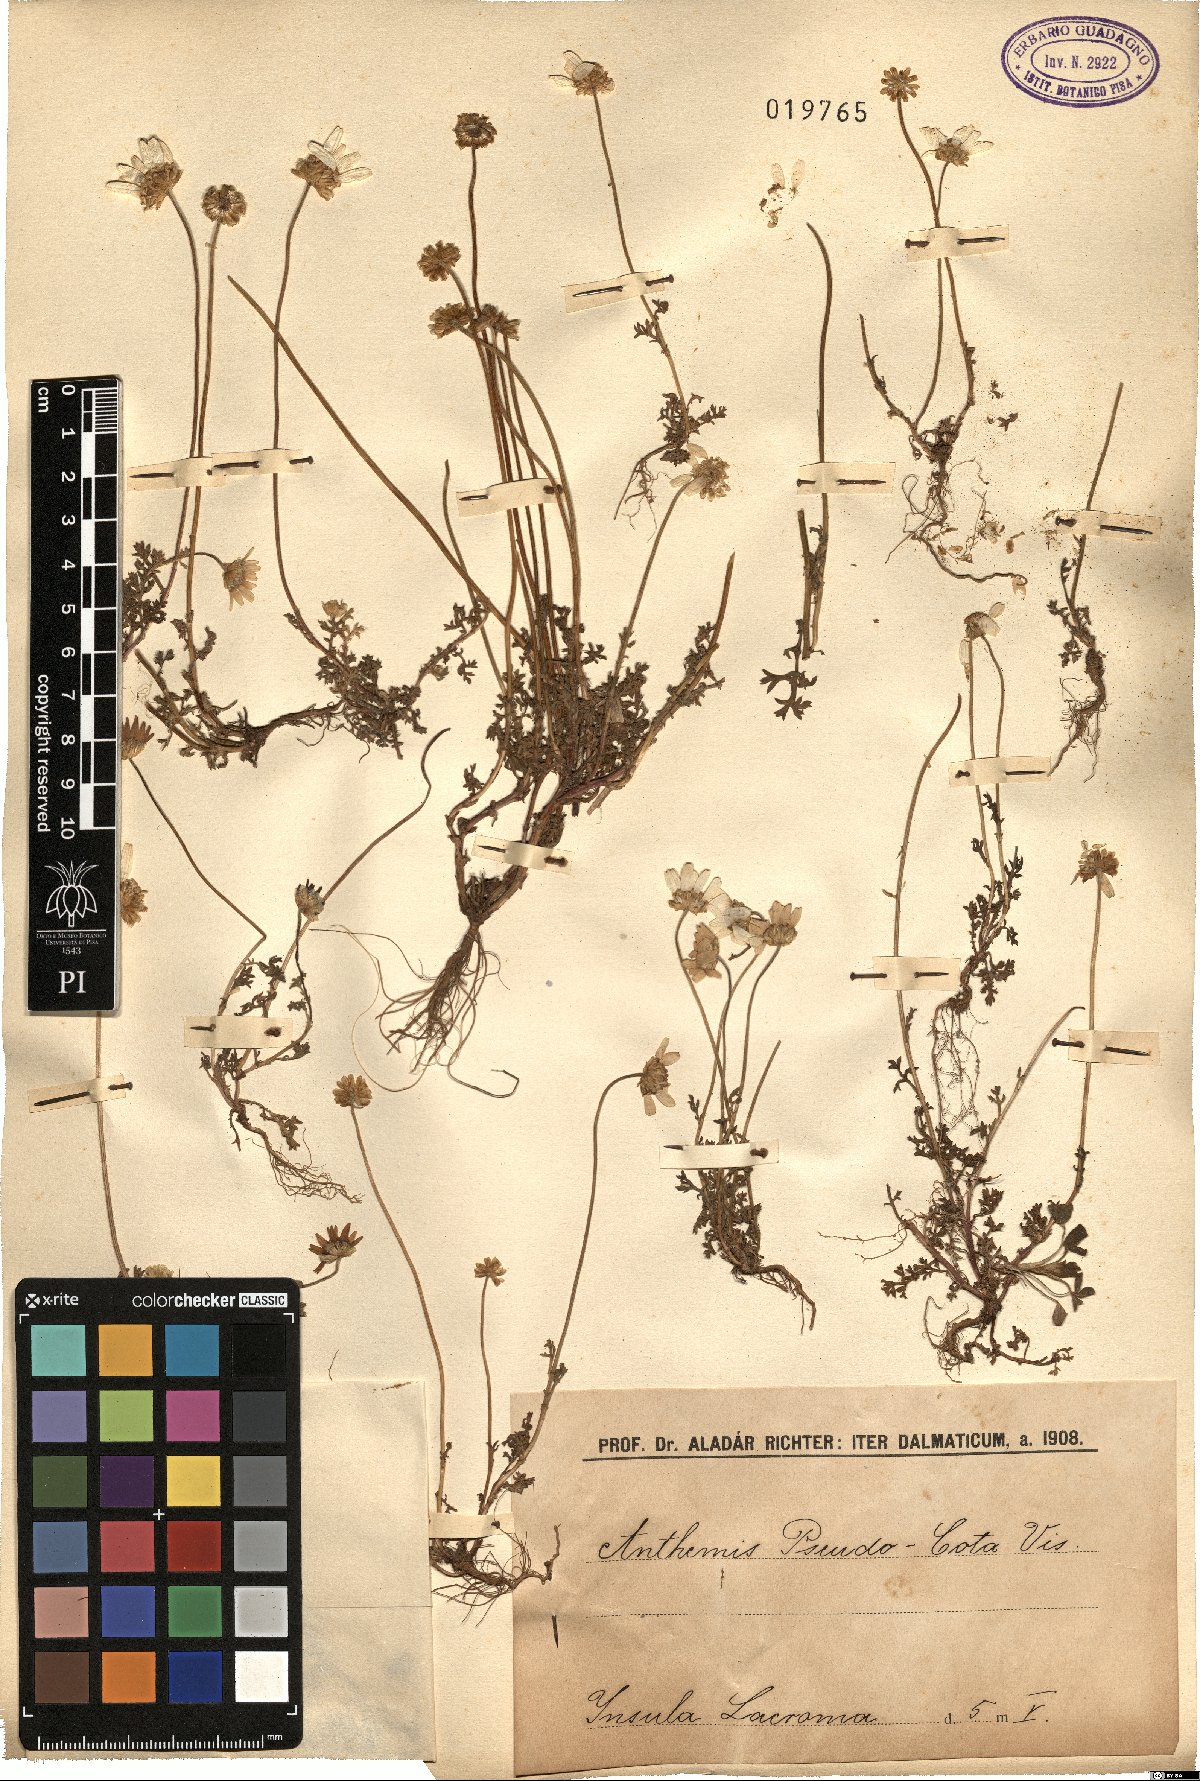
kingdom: Plantae
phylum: Tracheophyta
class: Magnoliopsida
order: Asterales
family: Asteraceae
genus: Cota
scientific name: Cota segetalis
